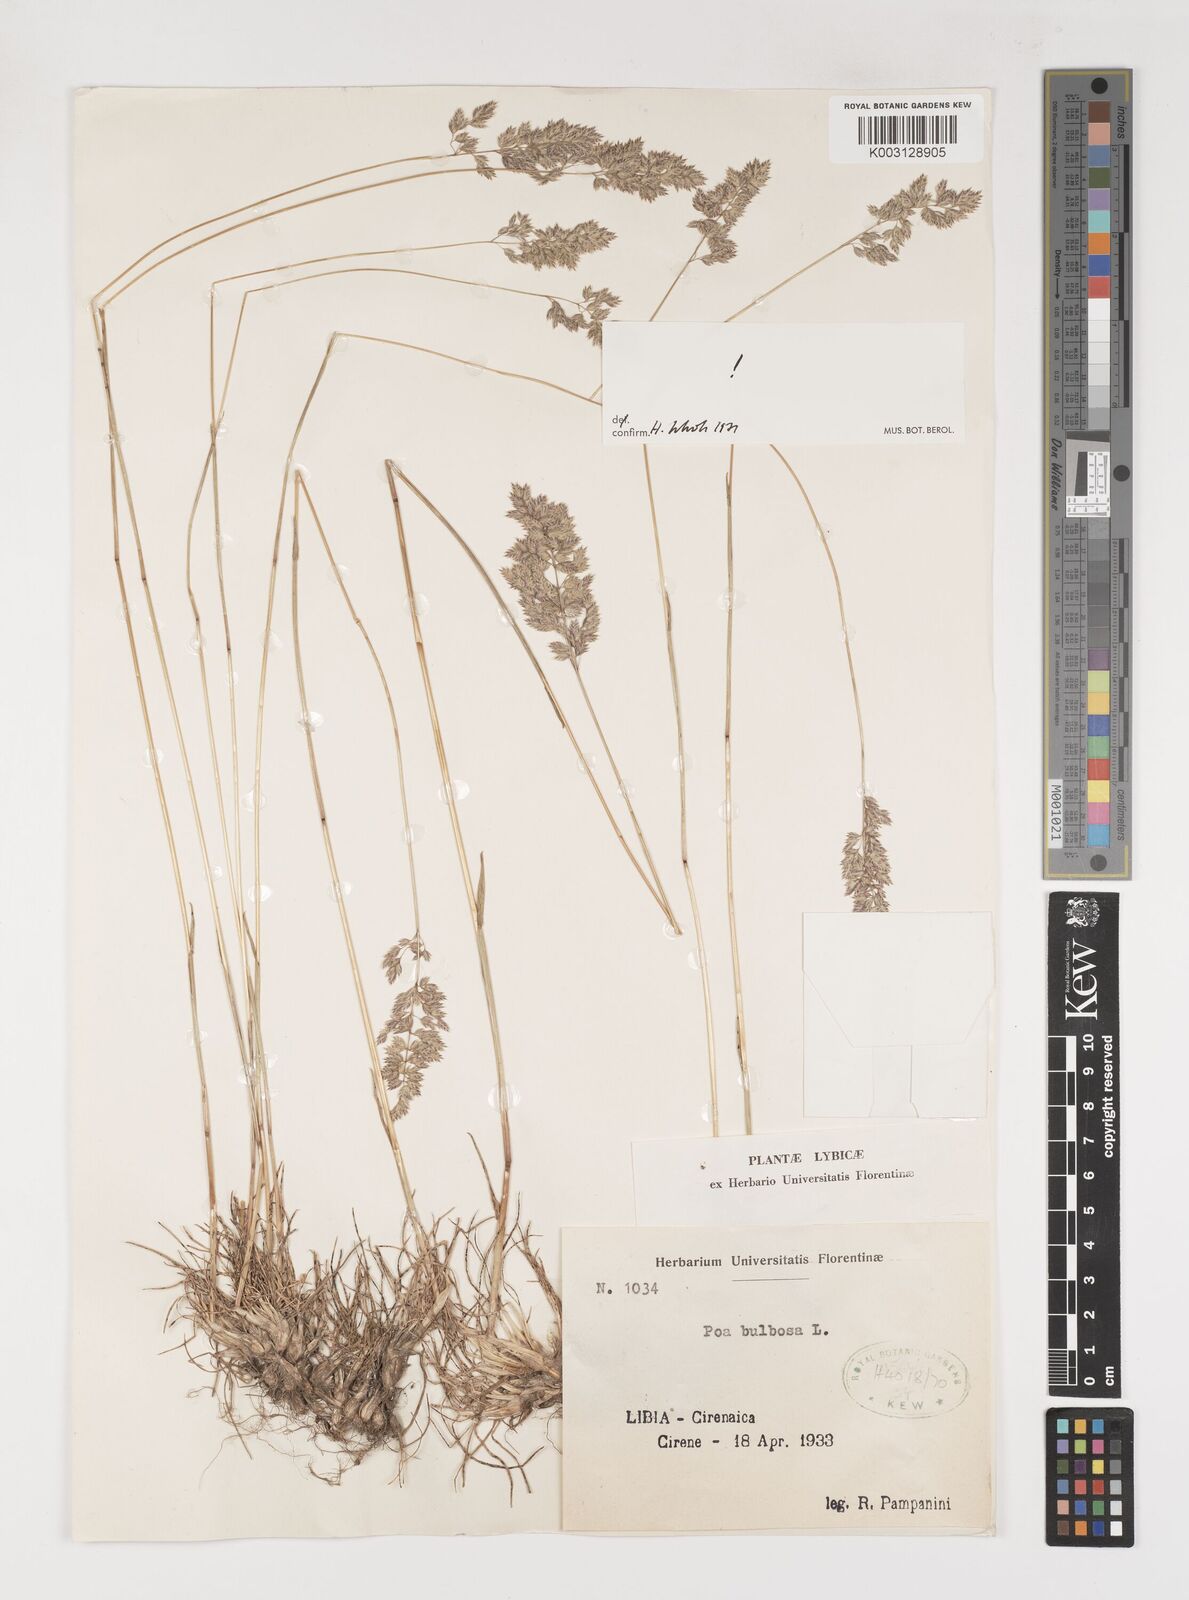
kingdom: Plantae
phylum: Tracheophyta
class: Liliopsida
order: Poales
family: Poaceae
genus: Poa
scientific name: Poa bulbosa
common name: Bulbous bluegrass
